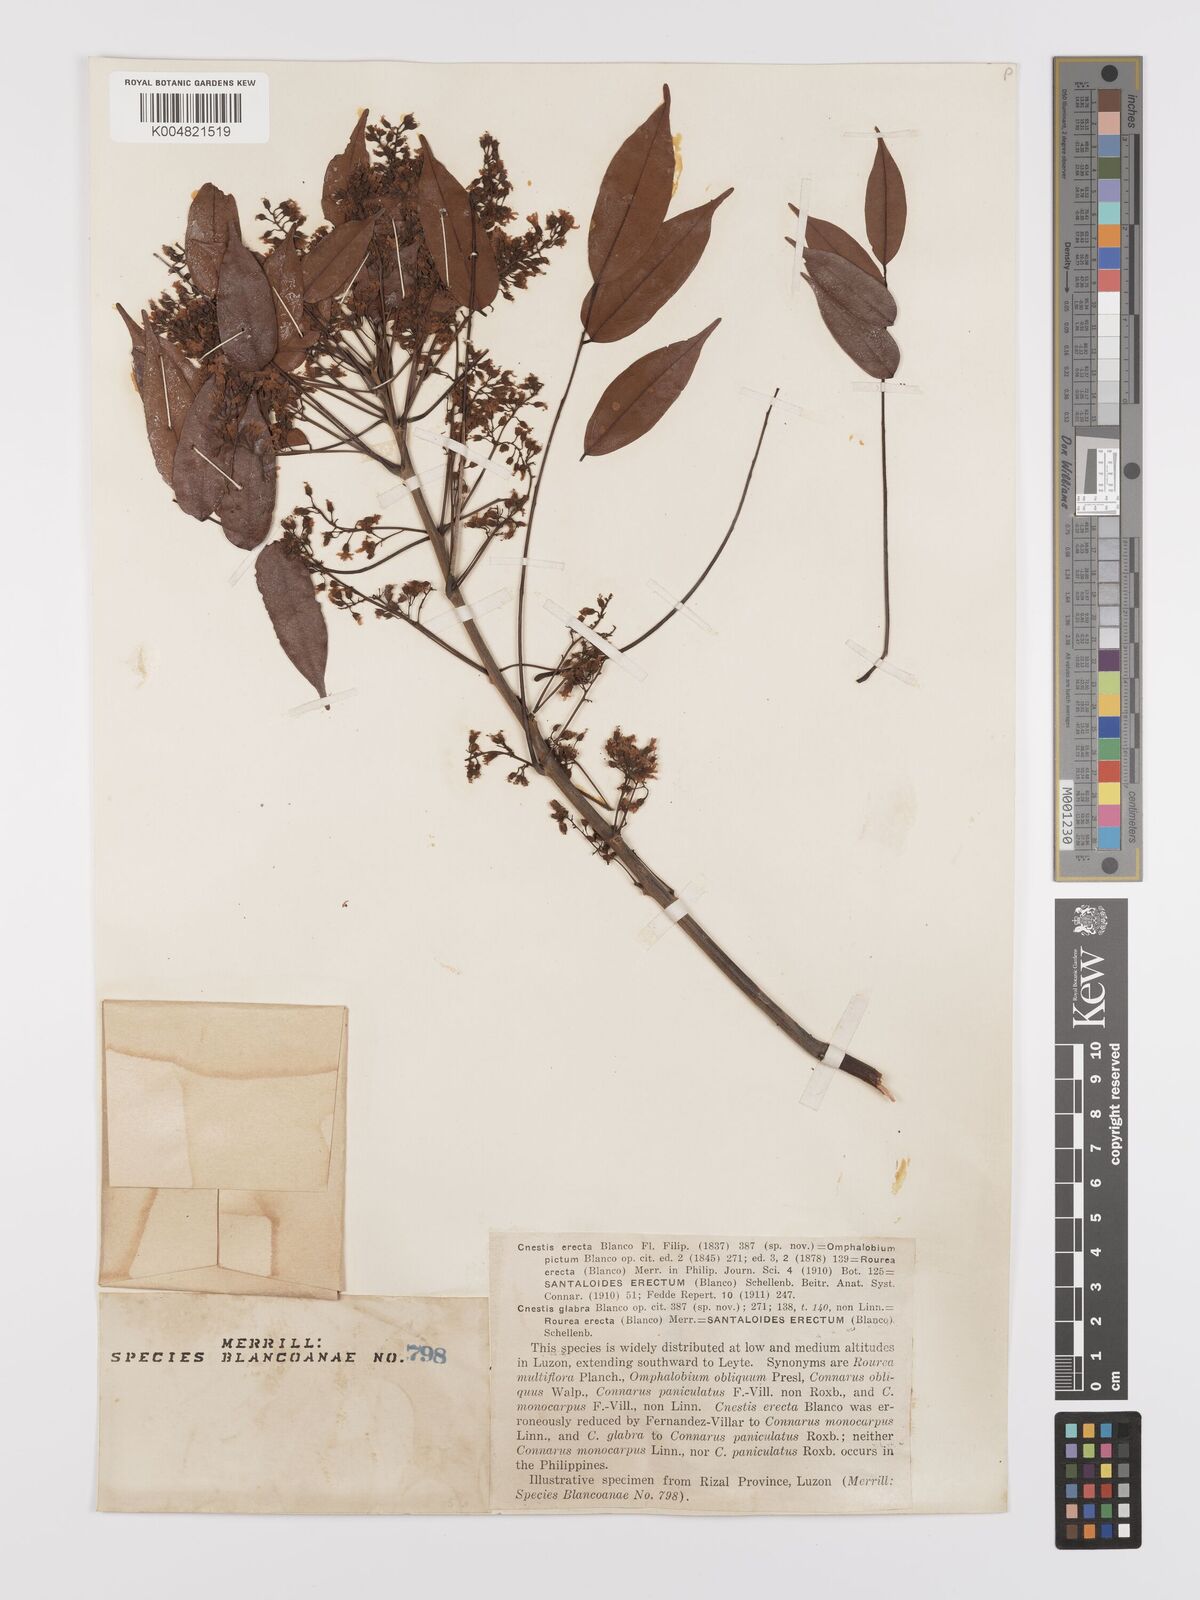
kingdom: Plantae
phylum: Tracheophyta
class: Magnoliopsida
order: Oxalidales
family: Connaraceae
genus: Rourea
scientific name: Rourea minor
